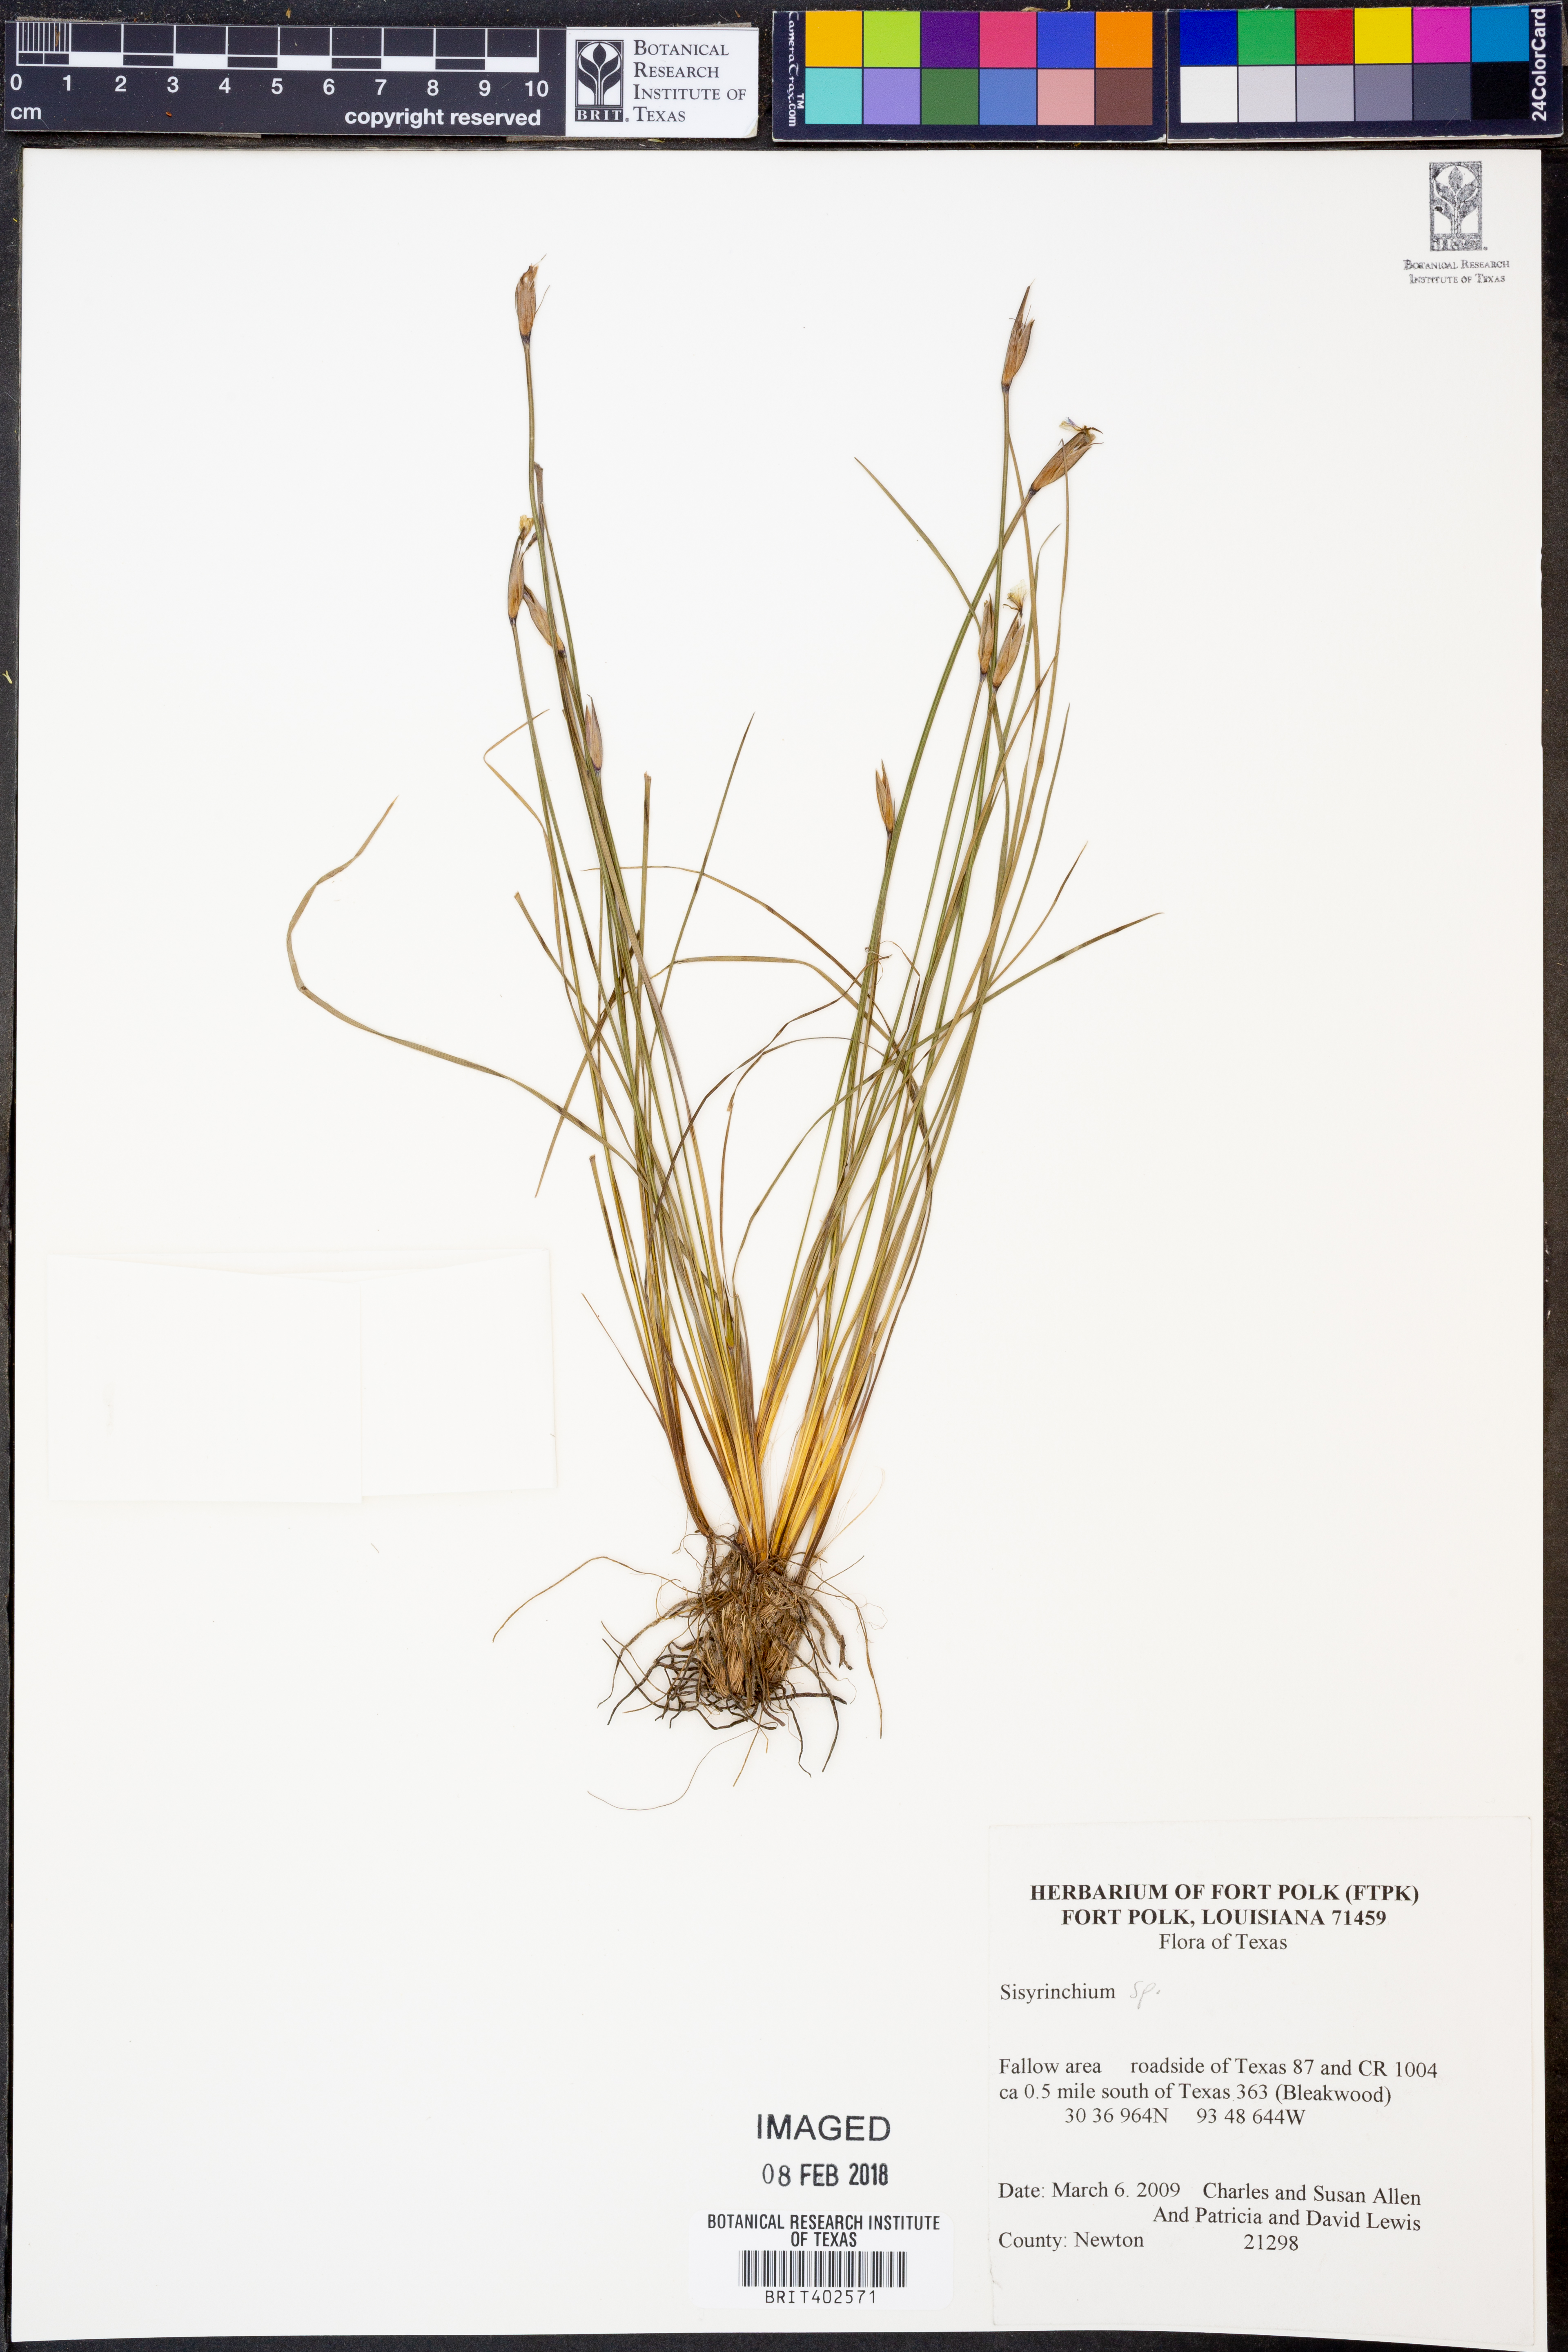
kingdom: Plantae
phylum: Tracheophyta
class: Liliopsida
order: Asparagales
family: Iridaceae
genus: Sisyrinchium
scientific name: Sisyrinchium
